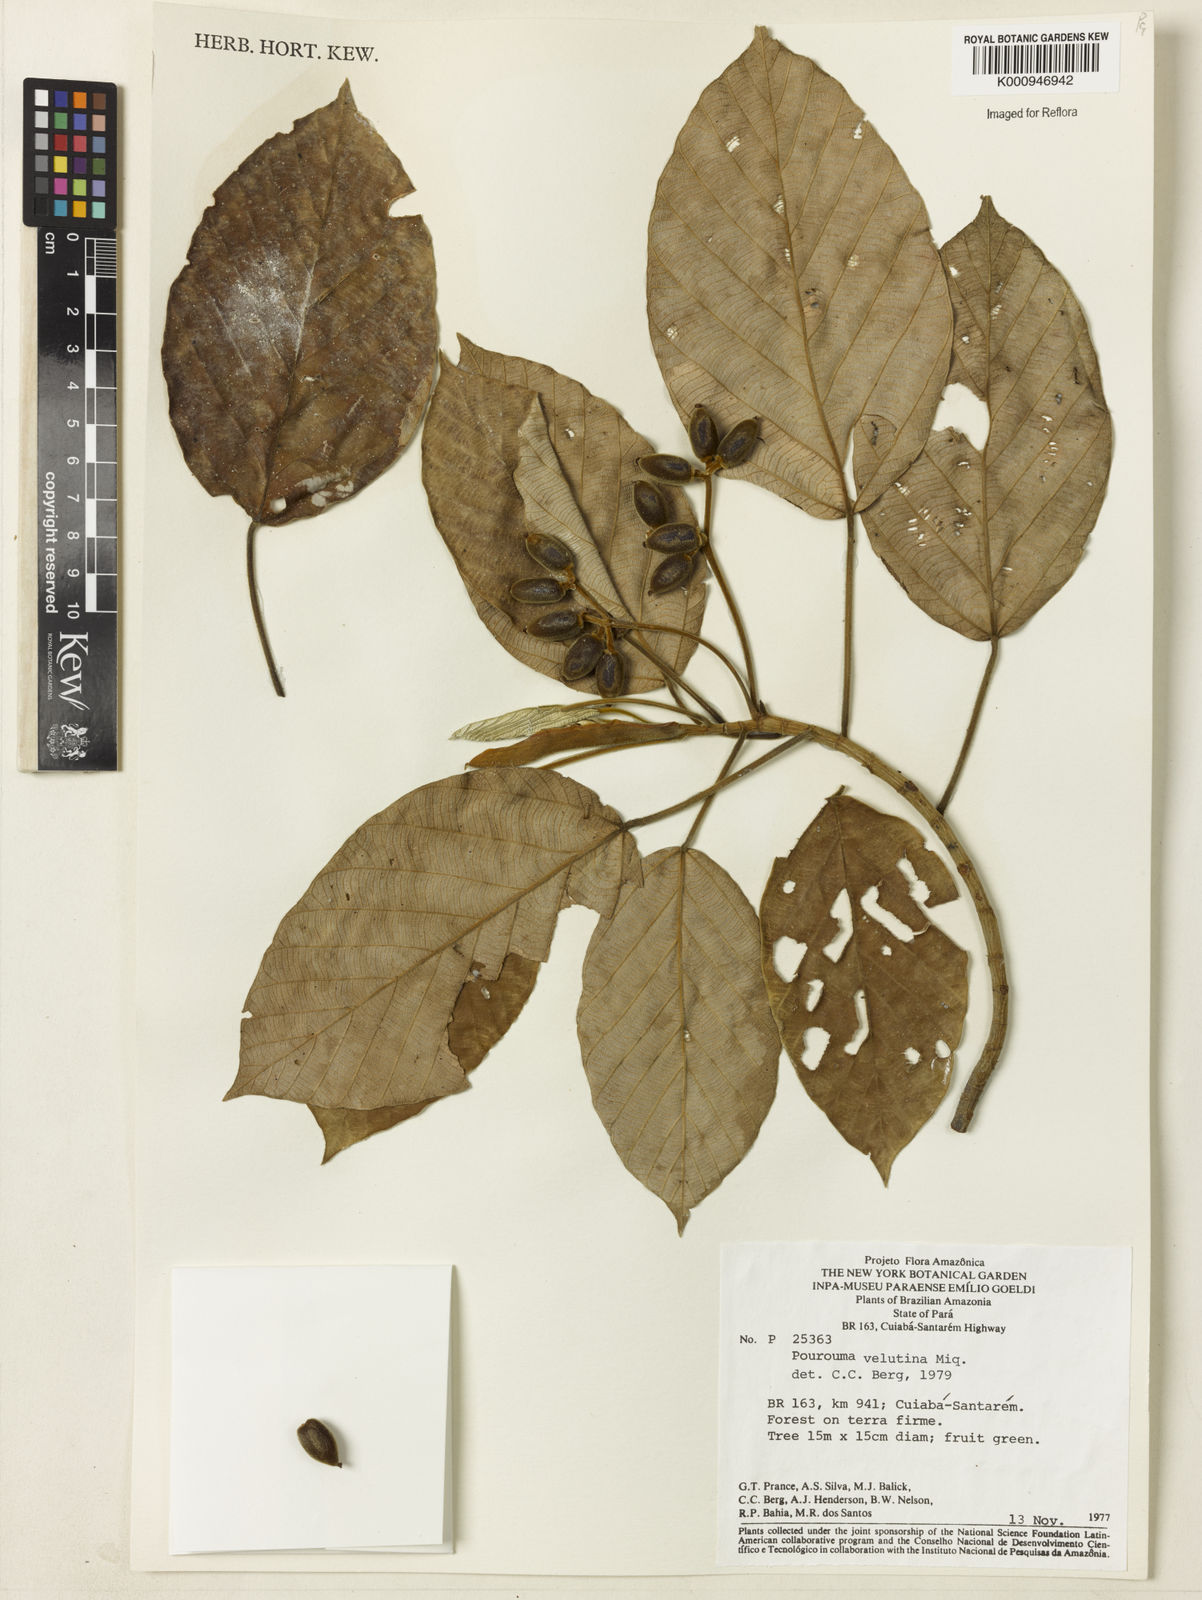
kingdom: Plantae
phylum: Tracheophyta
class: Magnoliopsida
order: Rosales
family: Urticaceae
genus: Pourouma
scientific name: Pourouma velutina
